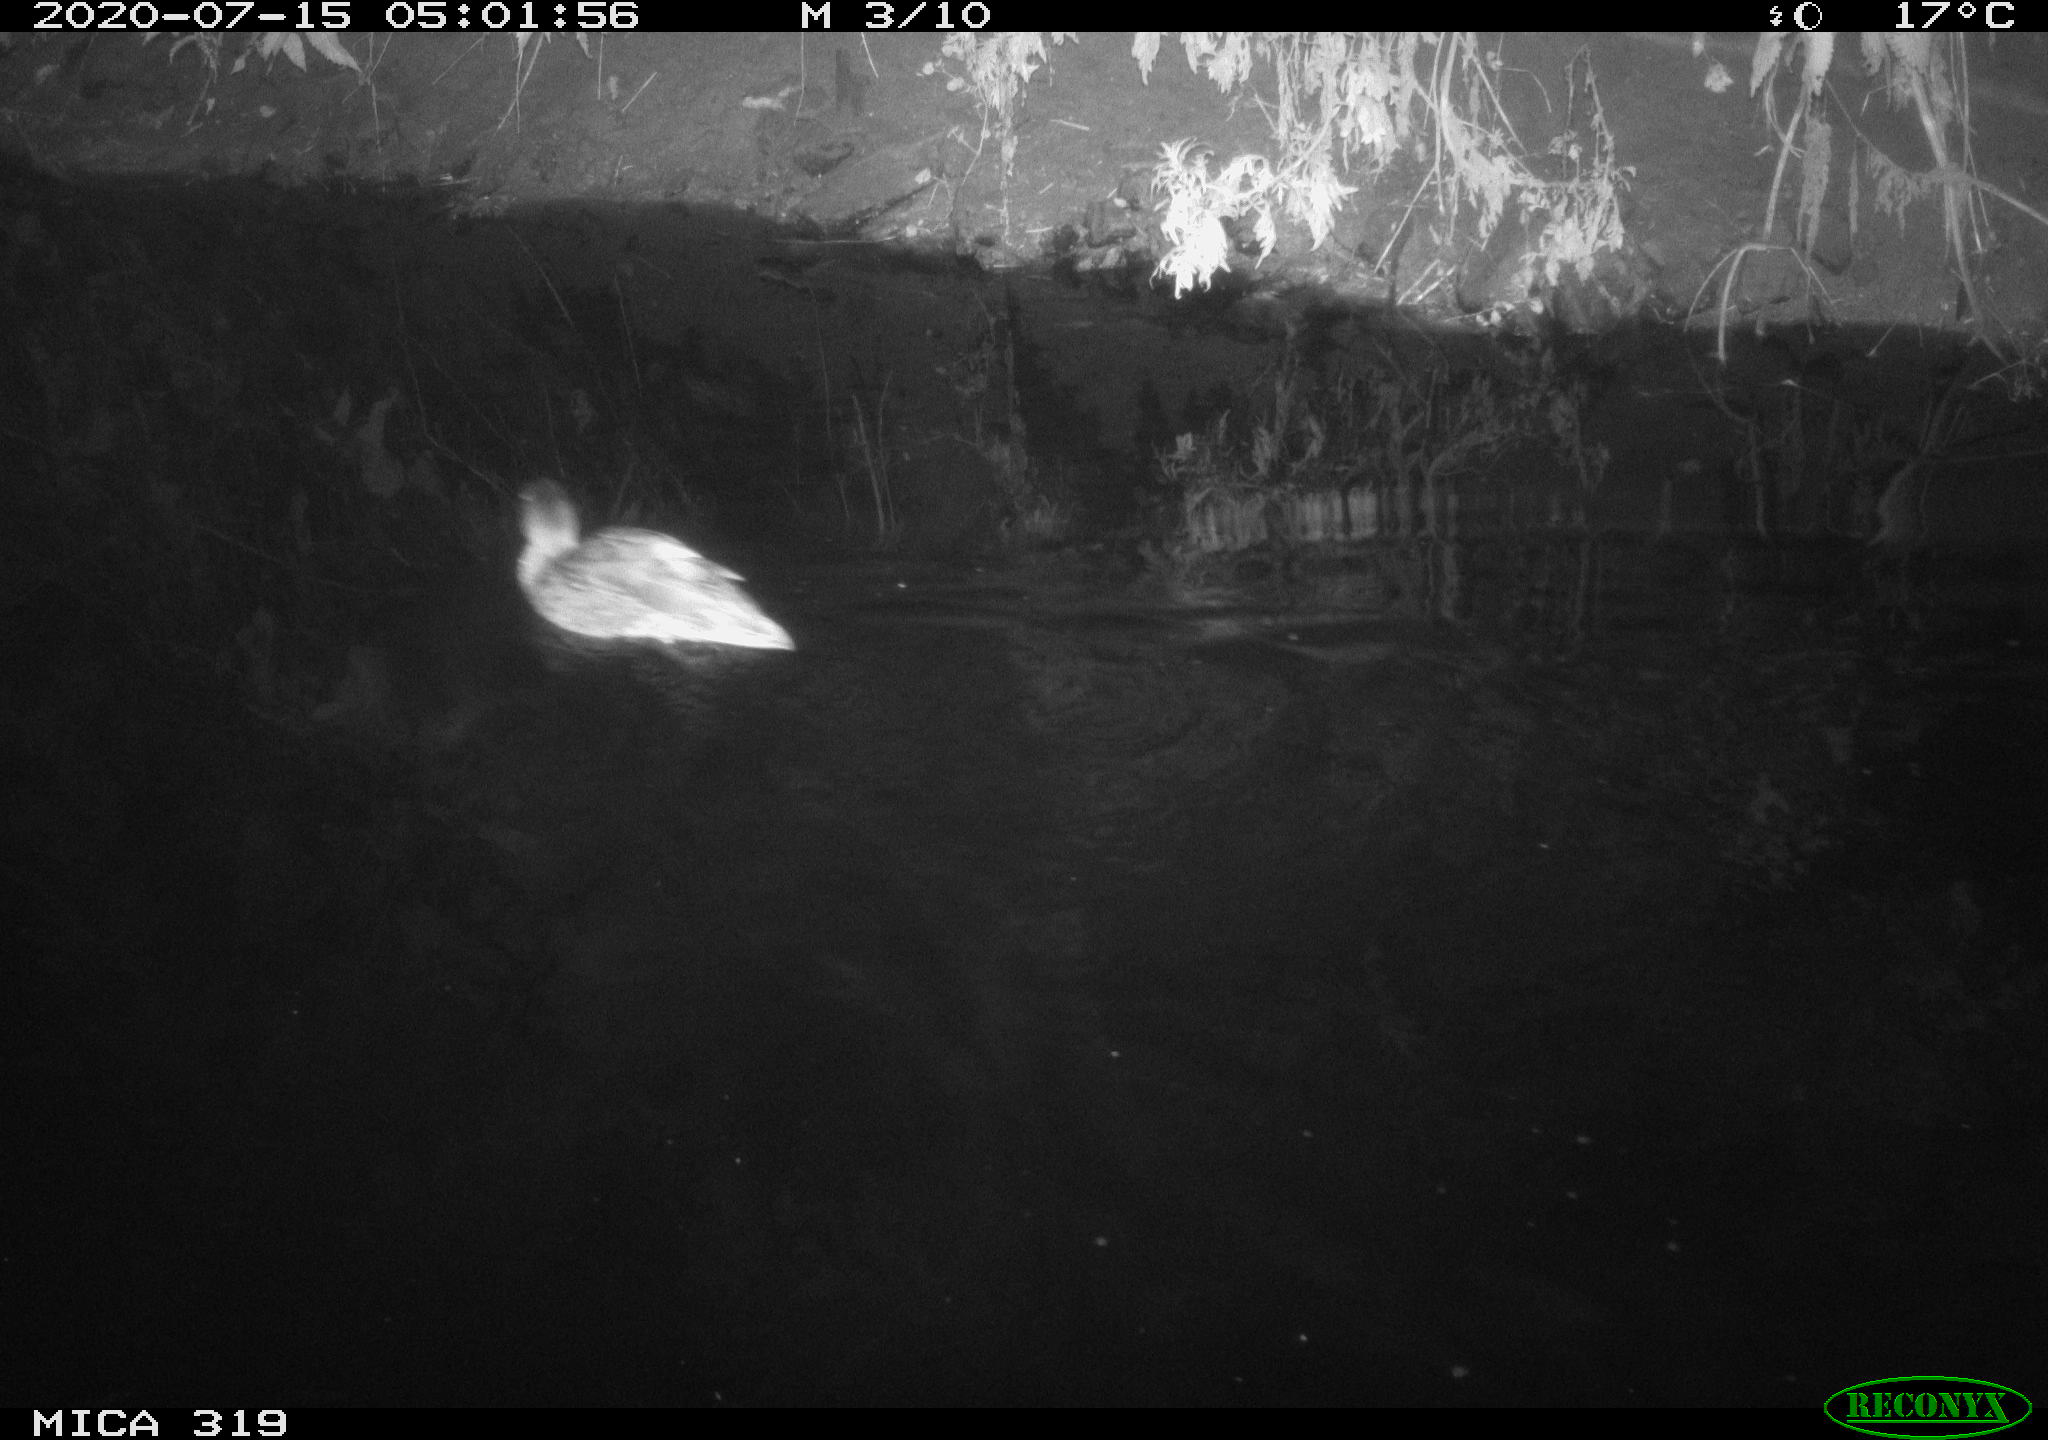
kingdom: Animalia
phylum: Chordata
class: Aves
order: Anseriformes
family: Anatidae
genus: Anas
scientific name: Anas platyrhynchos
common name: Mallard
